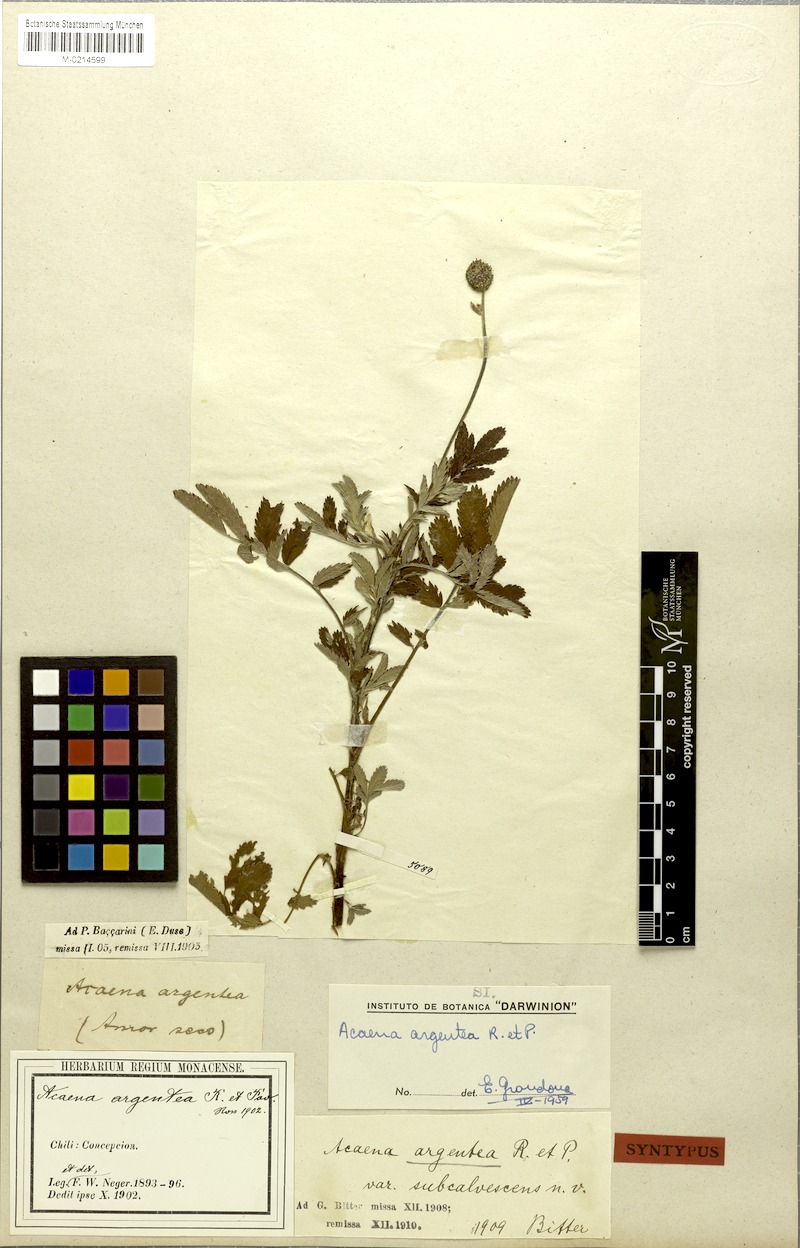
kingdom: Plantae
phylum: Tracheophyta
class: Magnoliopsida
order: Rosales
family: Rosaceae
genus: Acaena
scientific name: Acaena argentea
